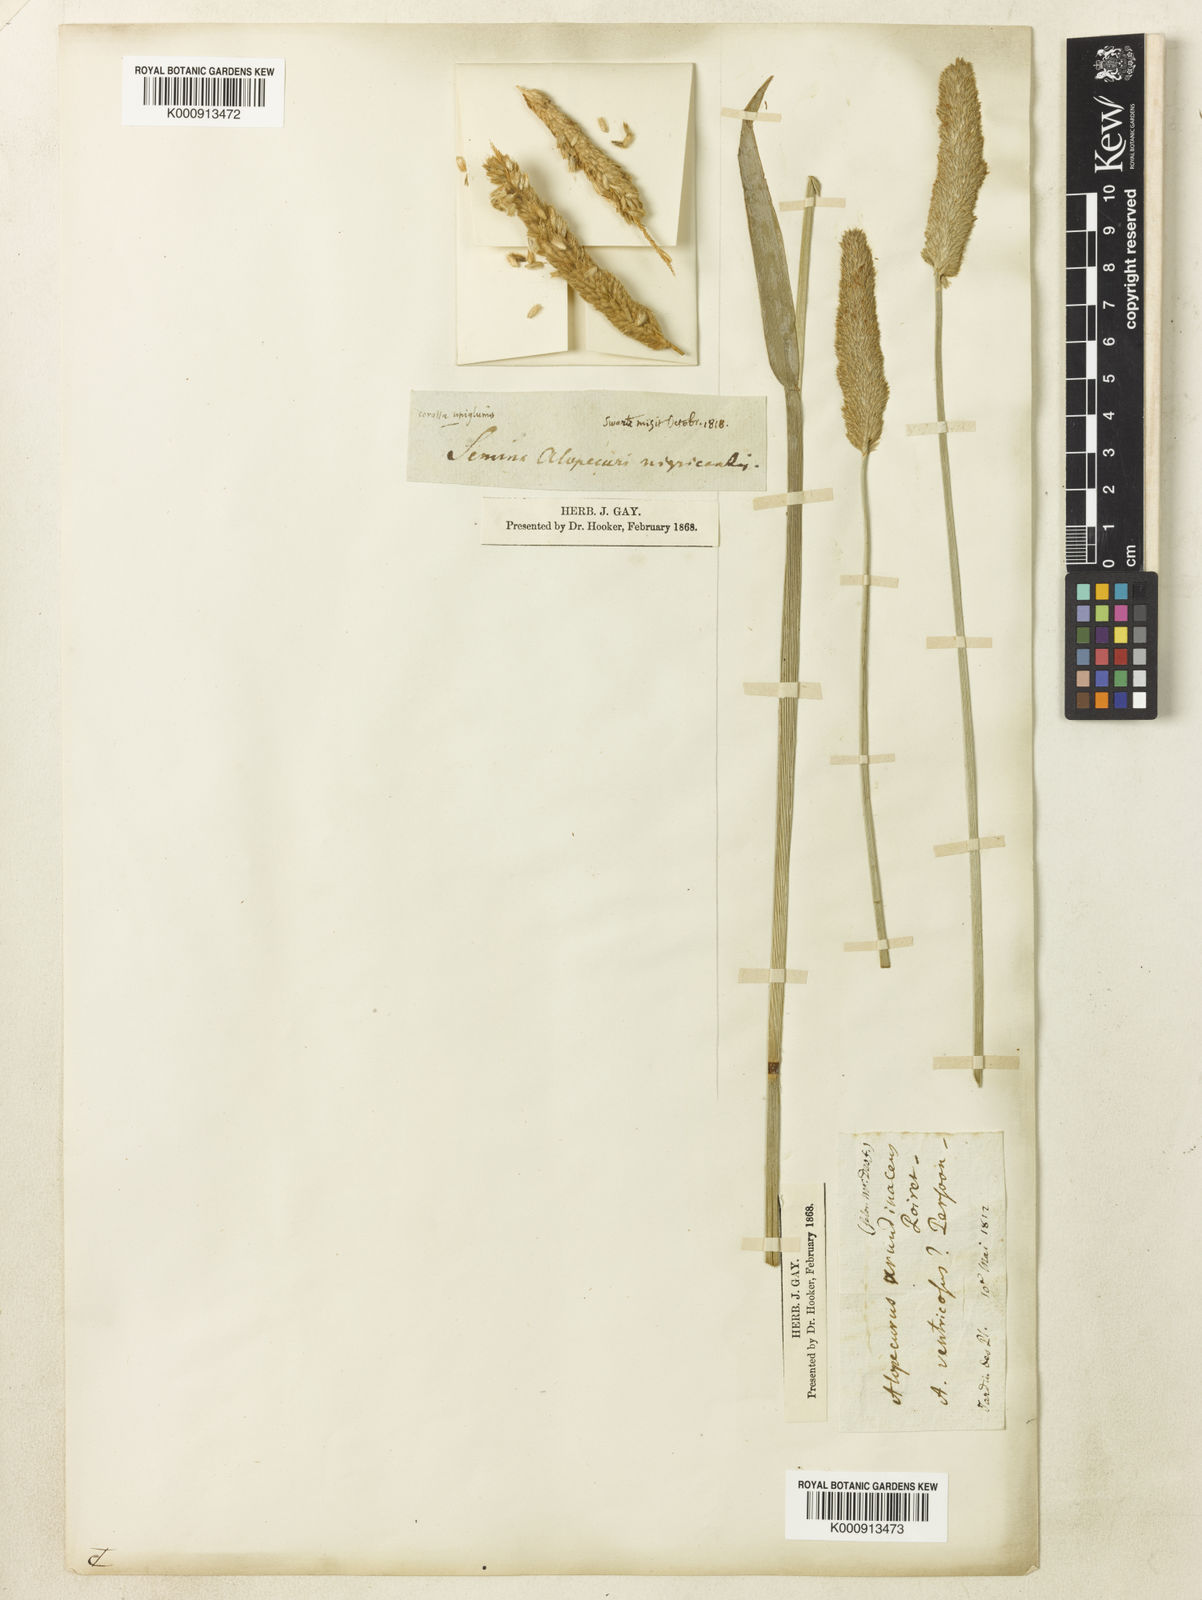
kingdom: Plantae
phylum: Tracheophyta
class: Liliopsida
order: Poales
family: Poaceae
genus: Alopecurus
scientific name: Alopecurus arundinaceus
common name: Creeping meadow foxtail
